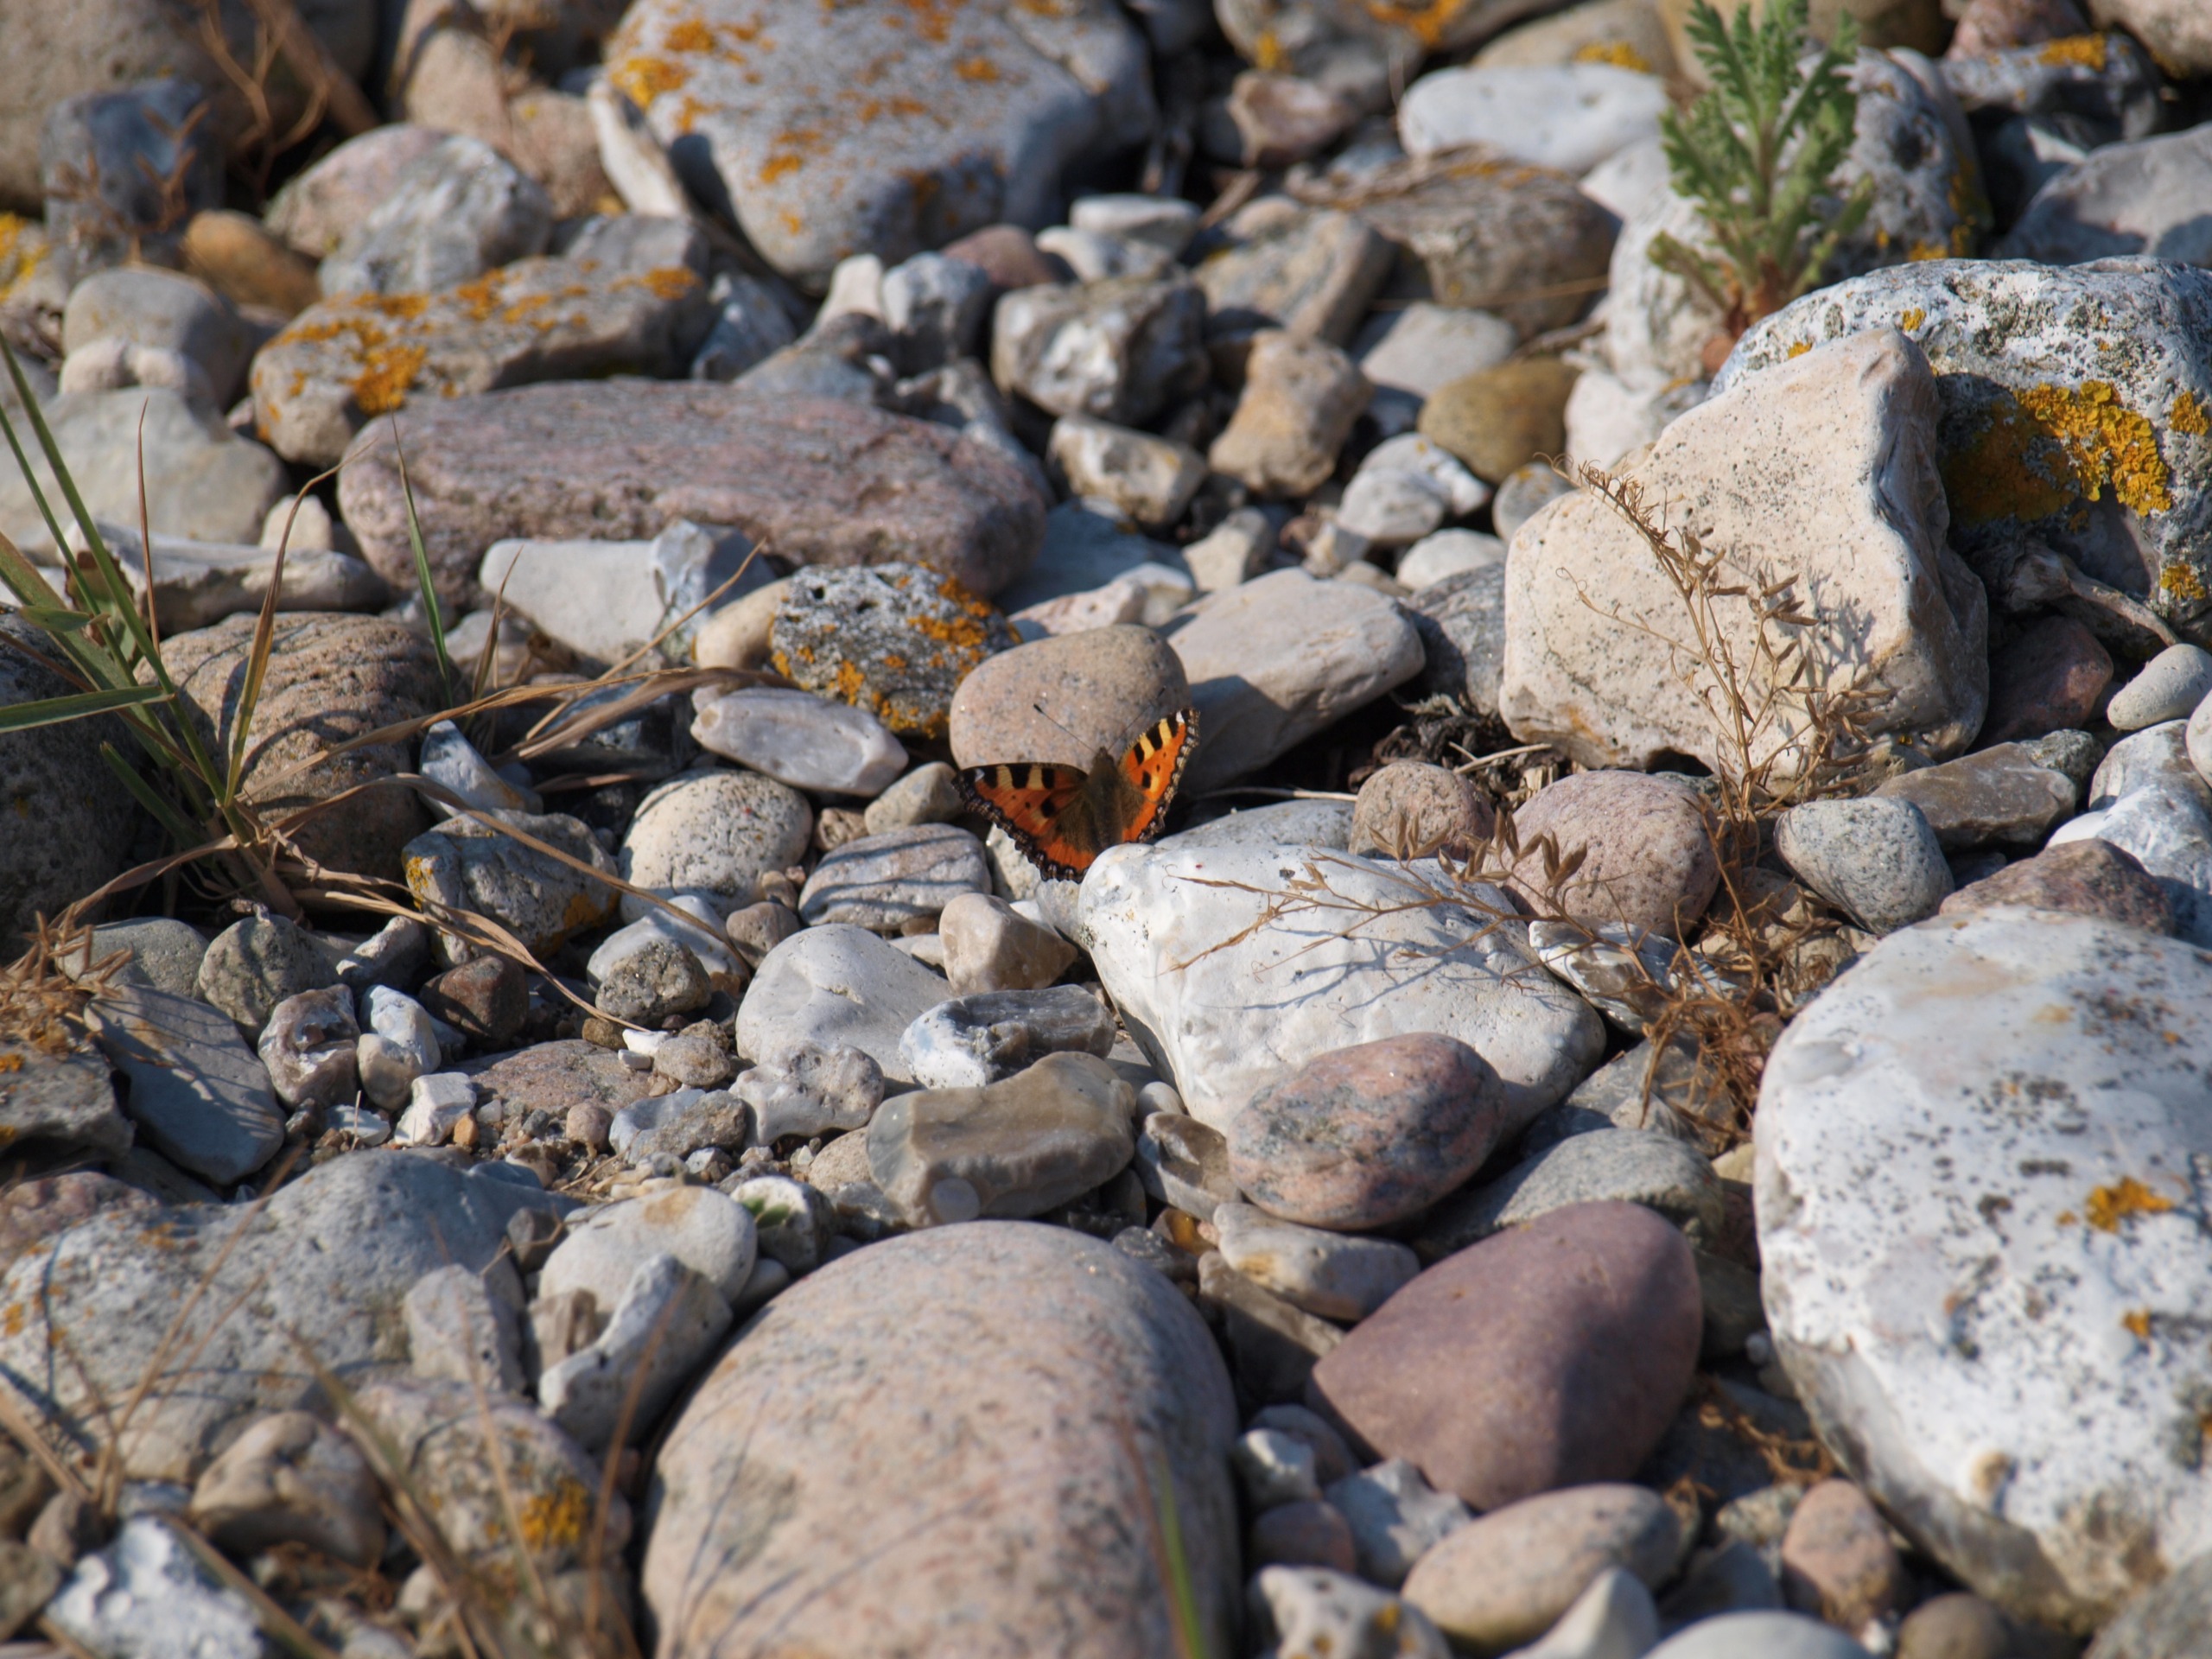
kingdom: Animalia
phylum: Arthropoda
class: Insecta
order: Lepidoptera
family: Nymphalidae
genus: Aglais
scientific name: Aglais urticae
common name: Nældens takvinge
